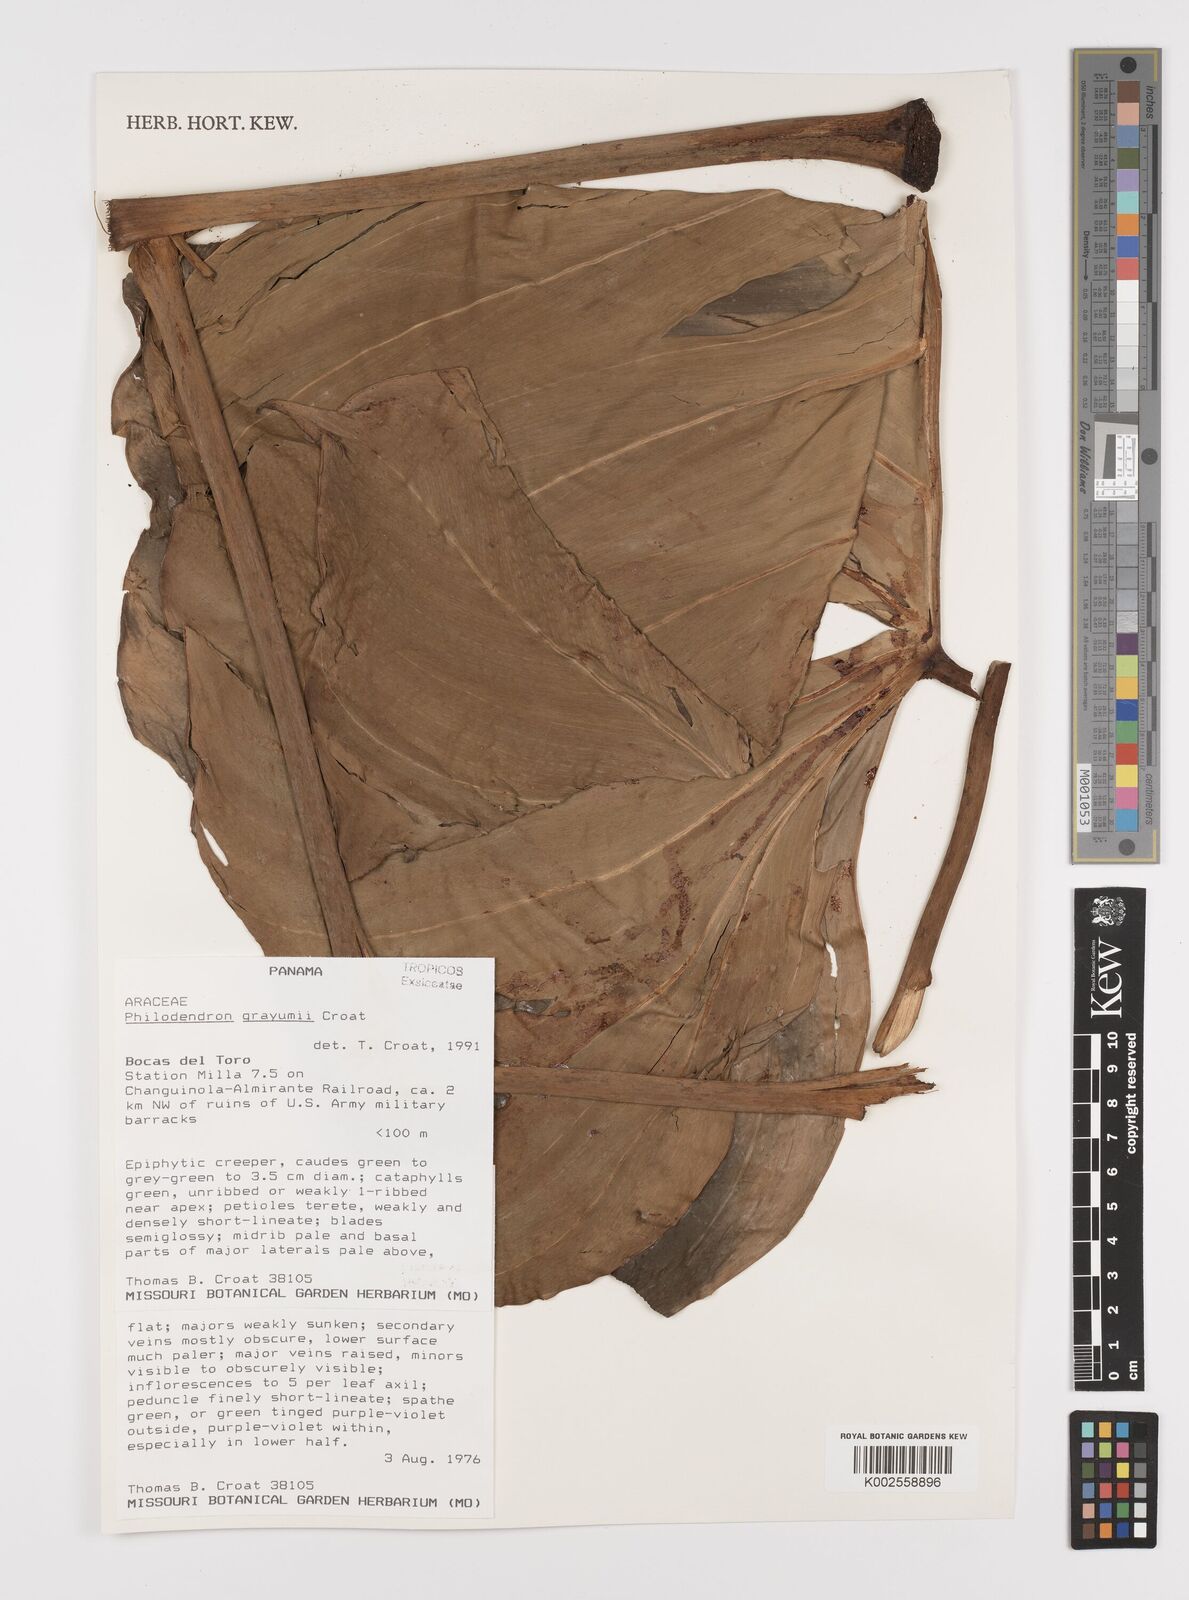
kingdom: Plantae
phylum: Tracheophyta
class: Liliopsida
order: Alismatales
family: Araceae
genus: Philodendron
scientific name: Philodendron grayumii
